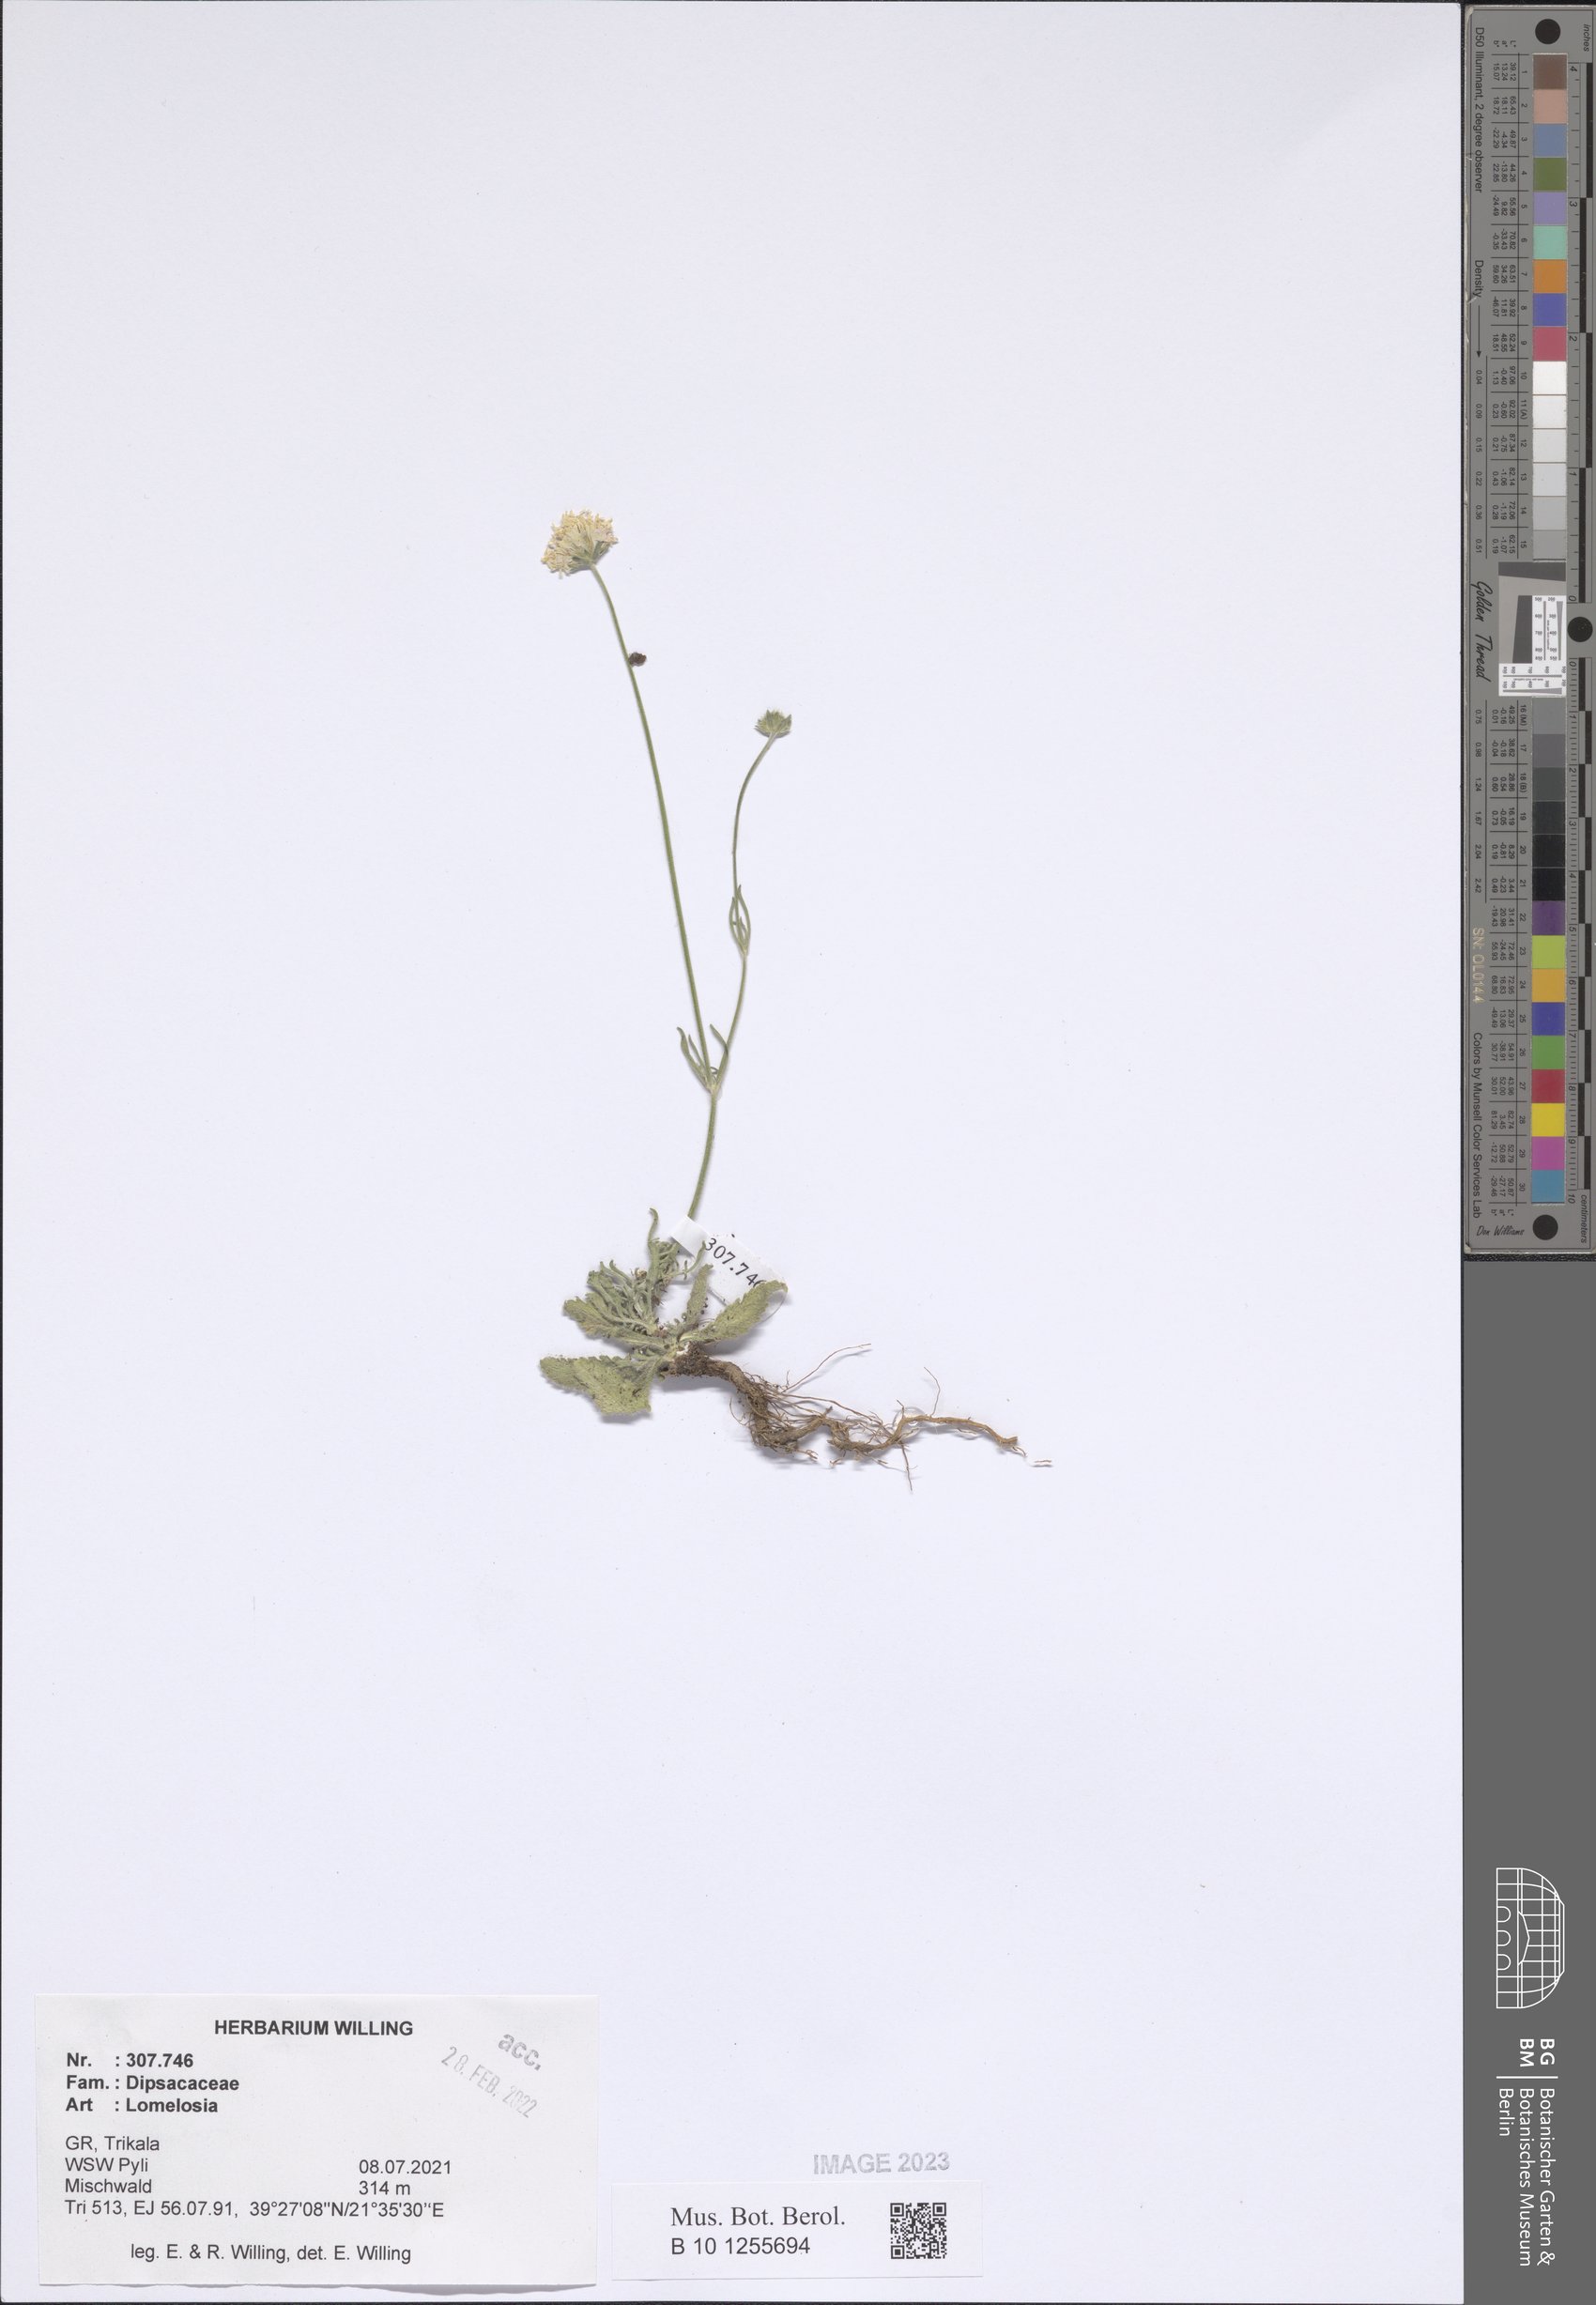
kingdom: Plantae
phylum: Tracheophyta
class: Magnoliopsida
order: Dipsacales
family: Caprifoliaceae
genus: Lomelosia
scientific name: Lomelosia
